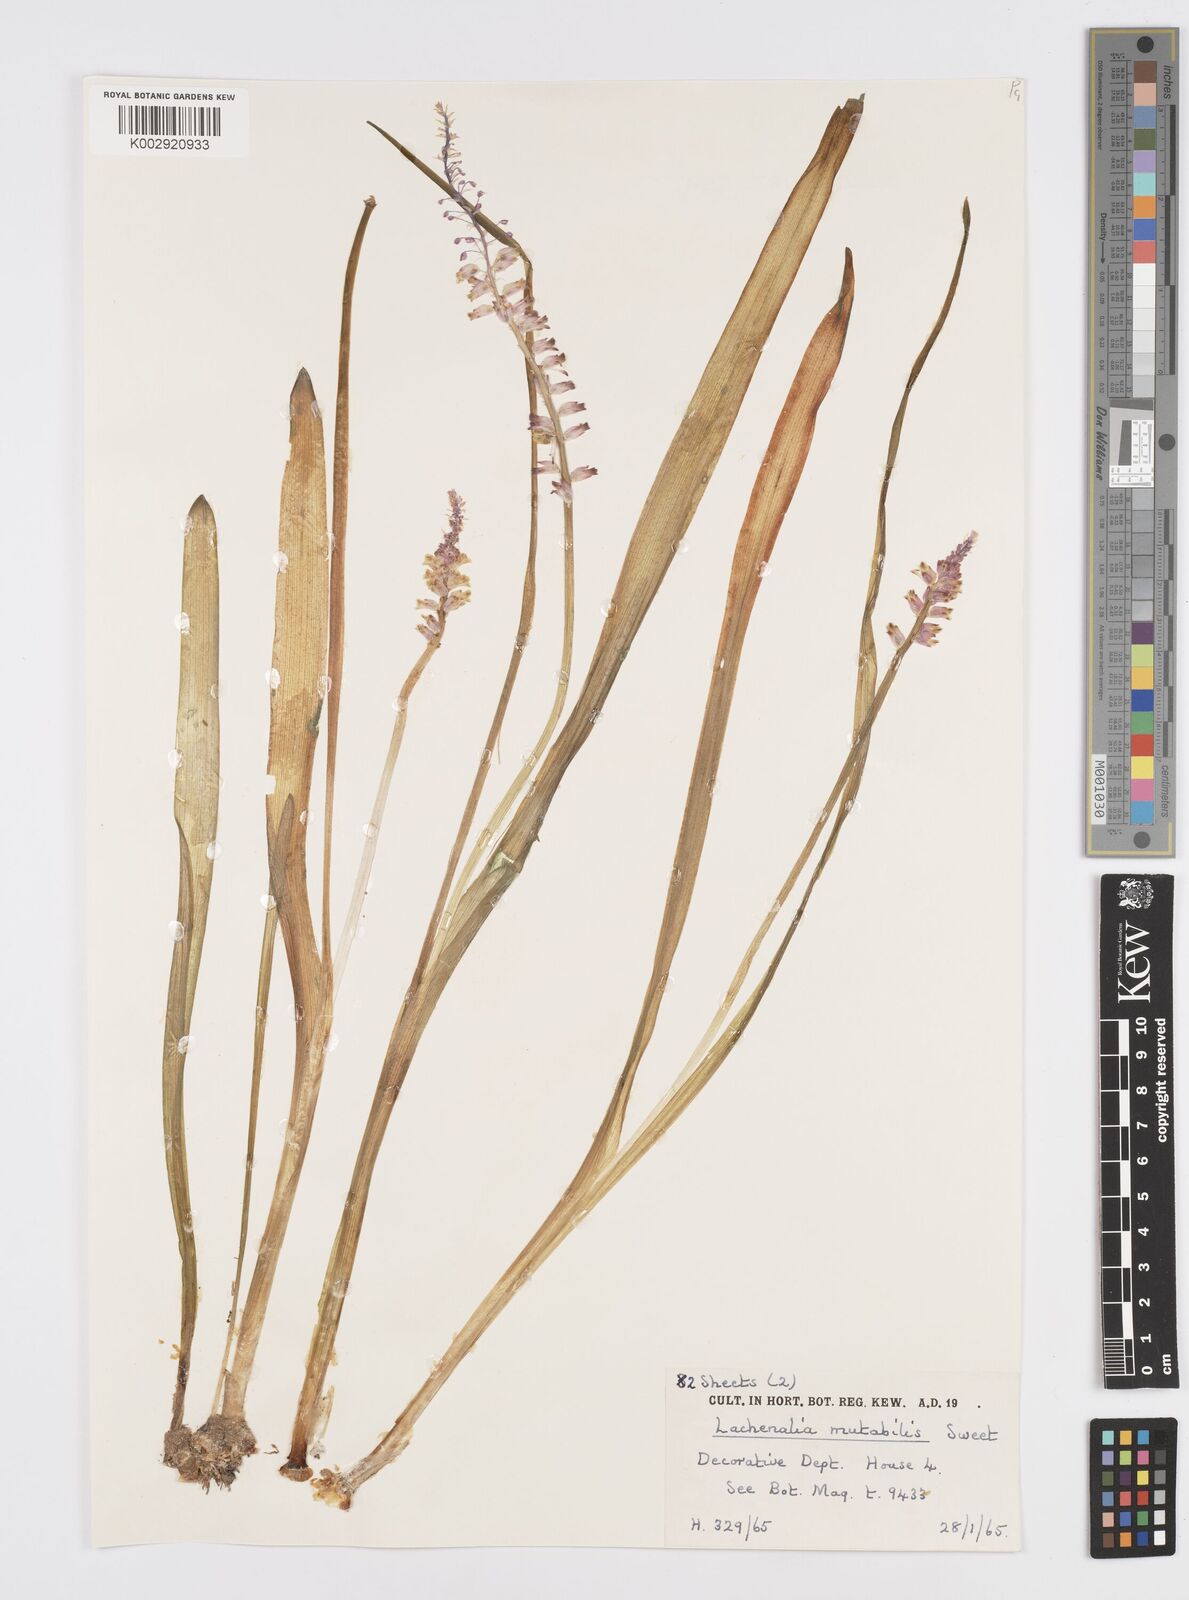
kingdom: Plantae
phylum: Tracheophyta
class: Liliopsida
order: Asparagales
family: Asparagaceae
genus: Lachenalia
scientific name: Lachenalia mutabilis
